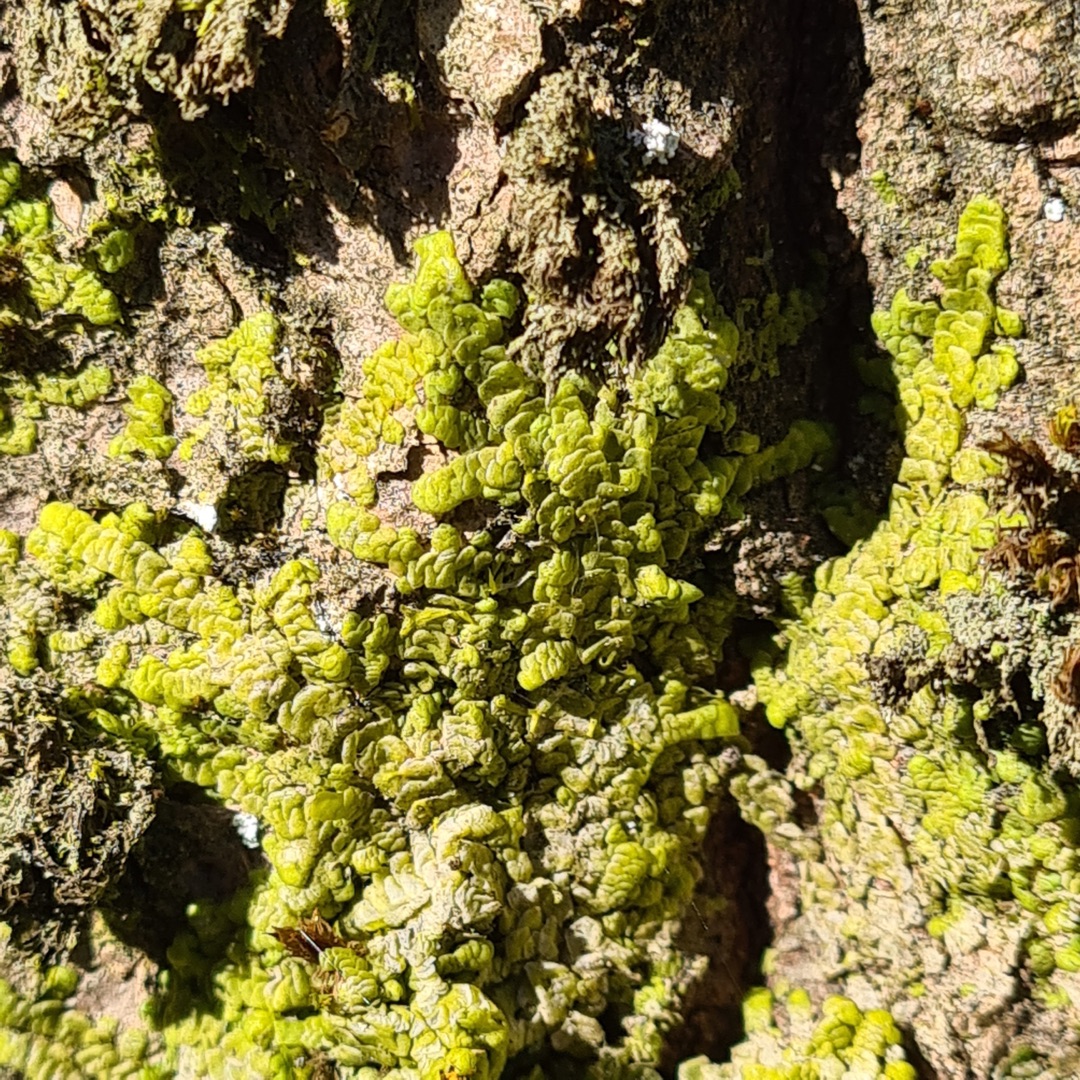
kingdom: Plantae
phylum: Marchantiophyta
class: Jungermanniopsida
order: Porellales
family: Radulaceae
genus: Radula
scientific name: Radula complanata
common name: Almindelig spartelmos
